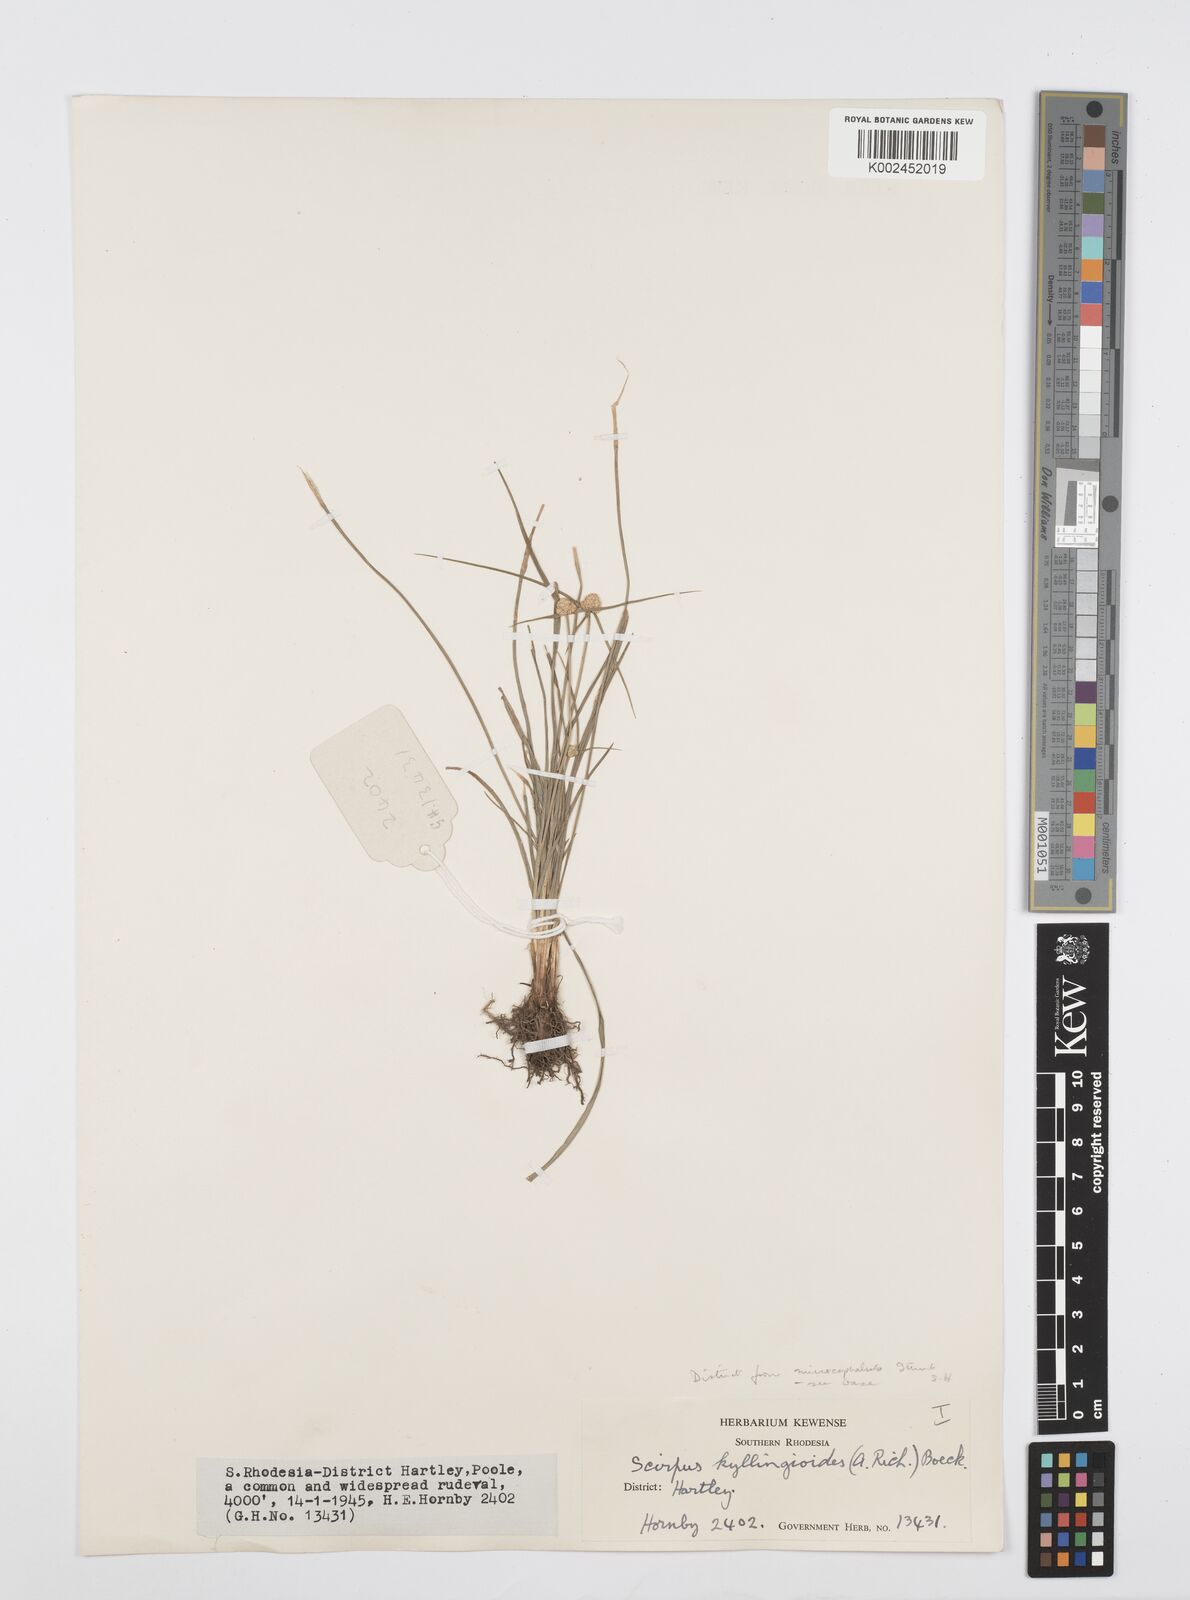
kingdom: Plantae
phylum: Tracheophyta
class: Liliopsida
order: Poales
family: Cyperaceae
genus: Cyperus
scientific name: Cyperus conglobatus
